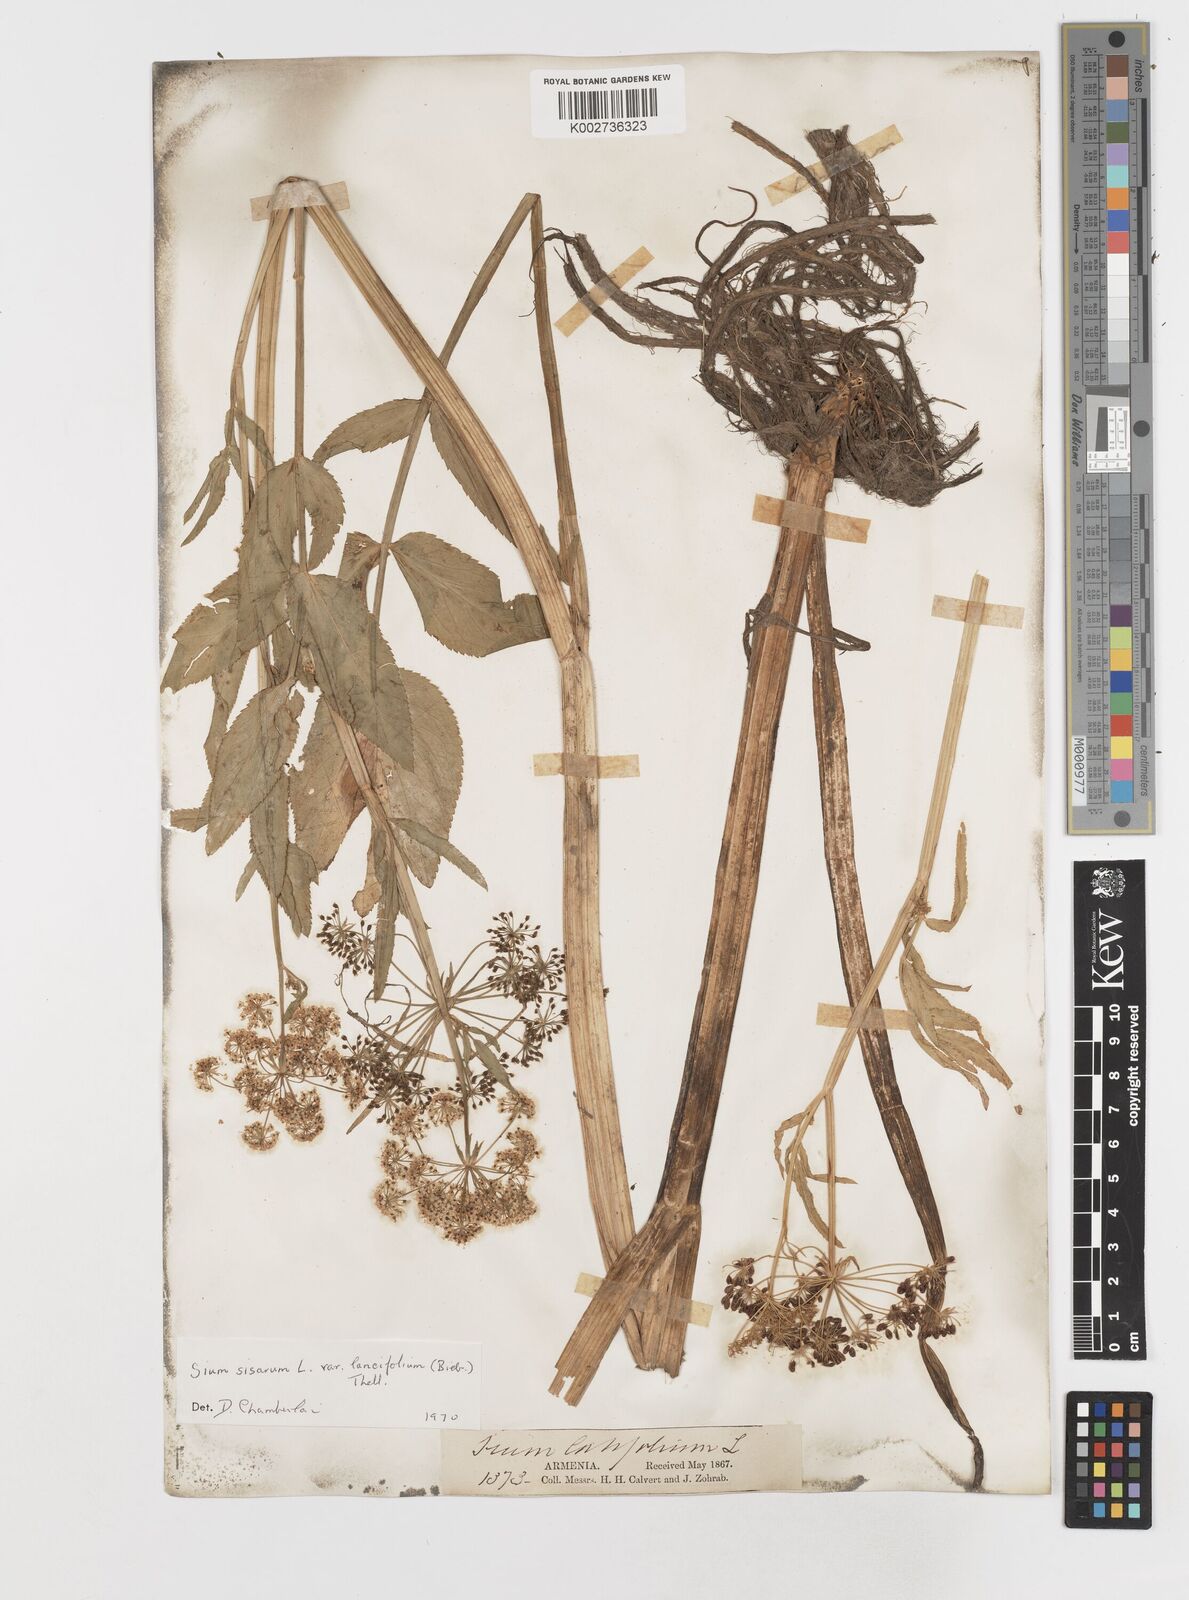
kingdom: Plantae
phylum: Tracheophyta
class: Magnoliopsida
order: Apiales
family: Apiaceae
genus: Sium
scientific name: Sium sisarum
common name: Skirret
